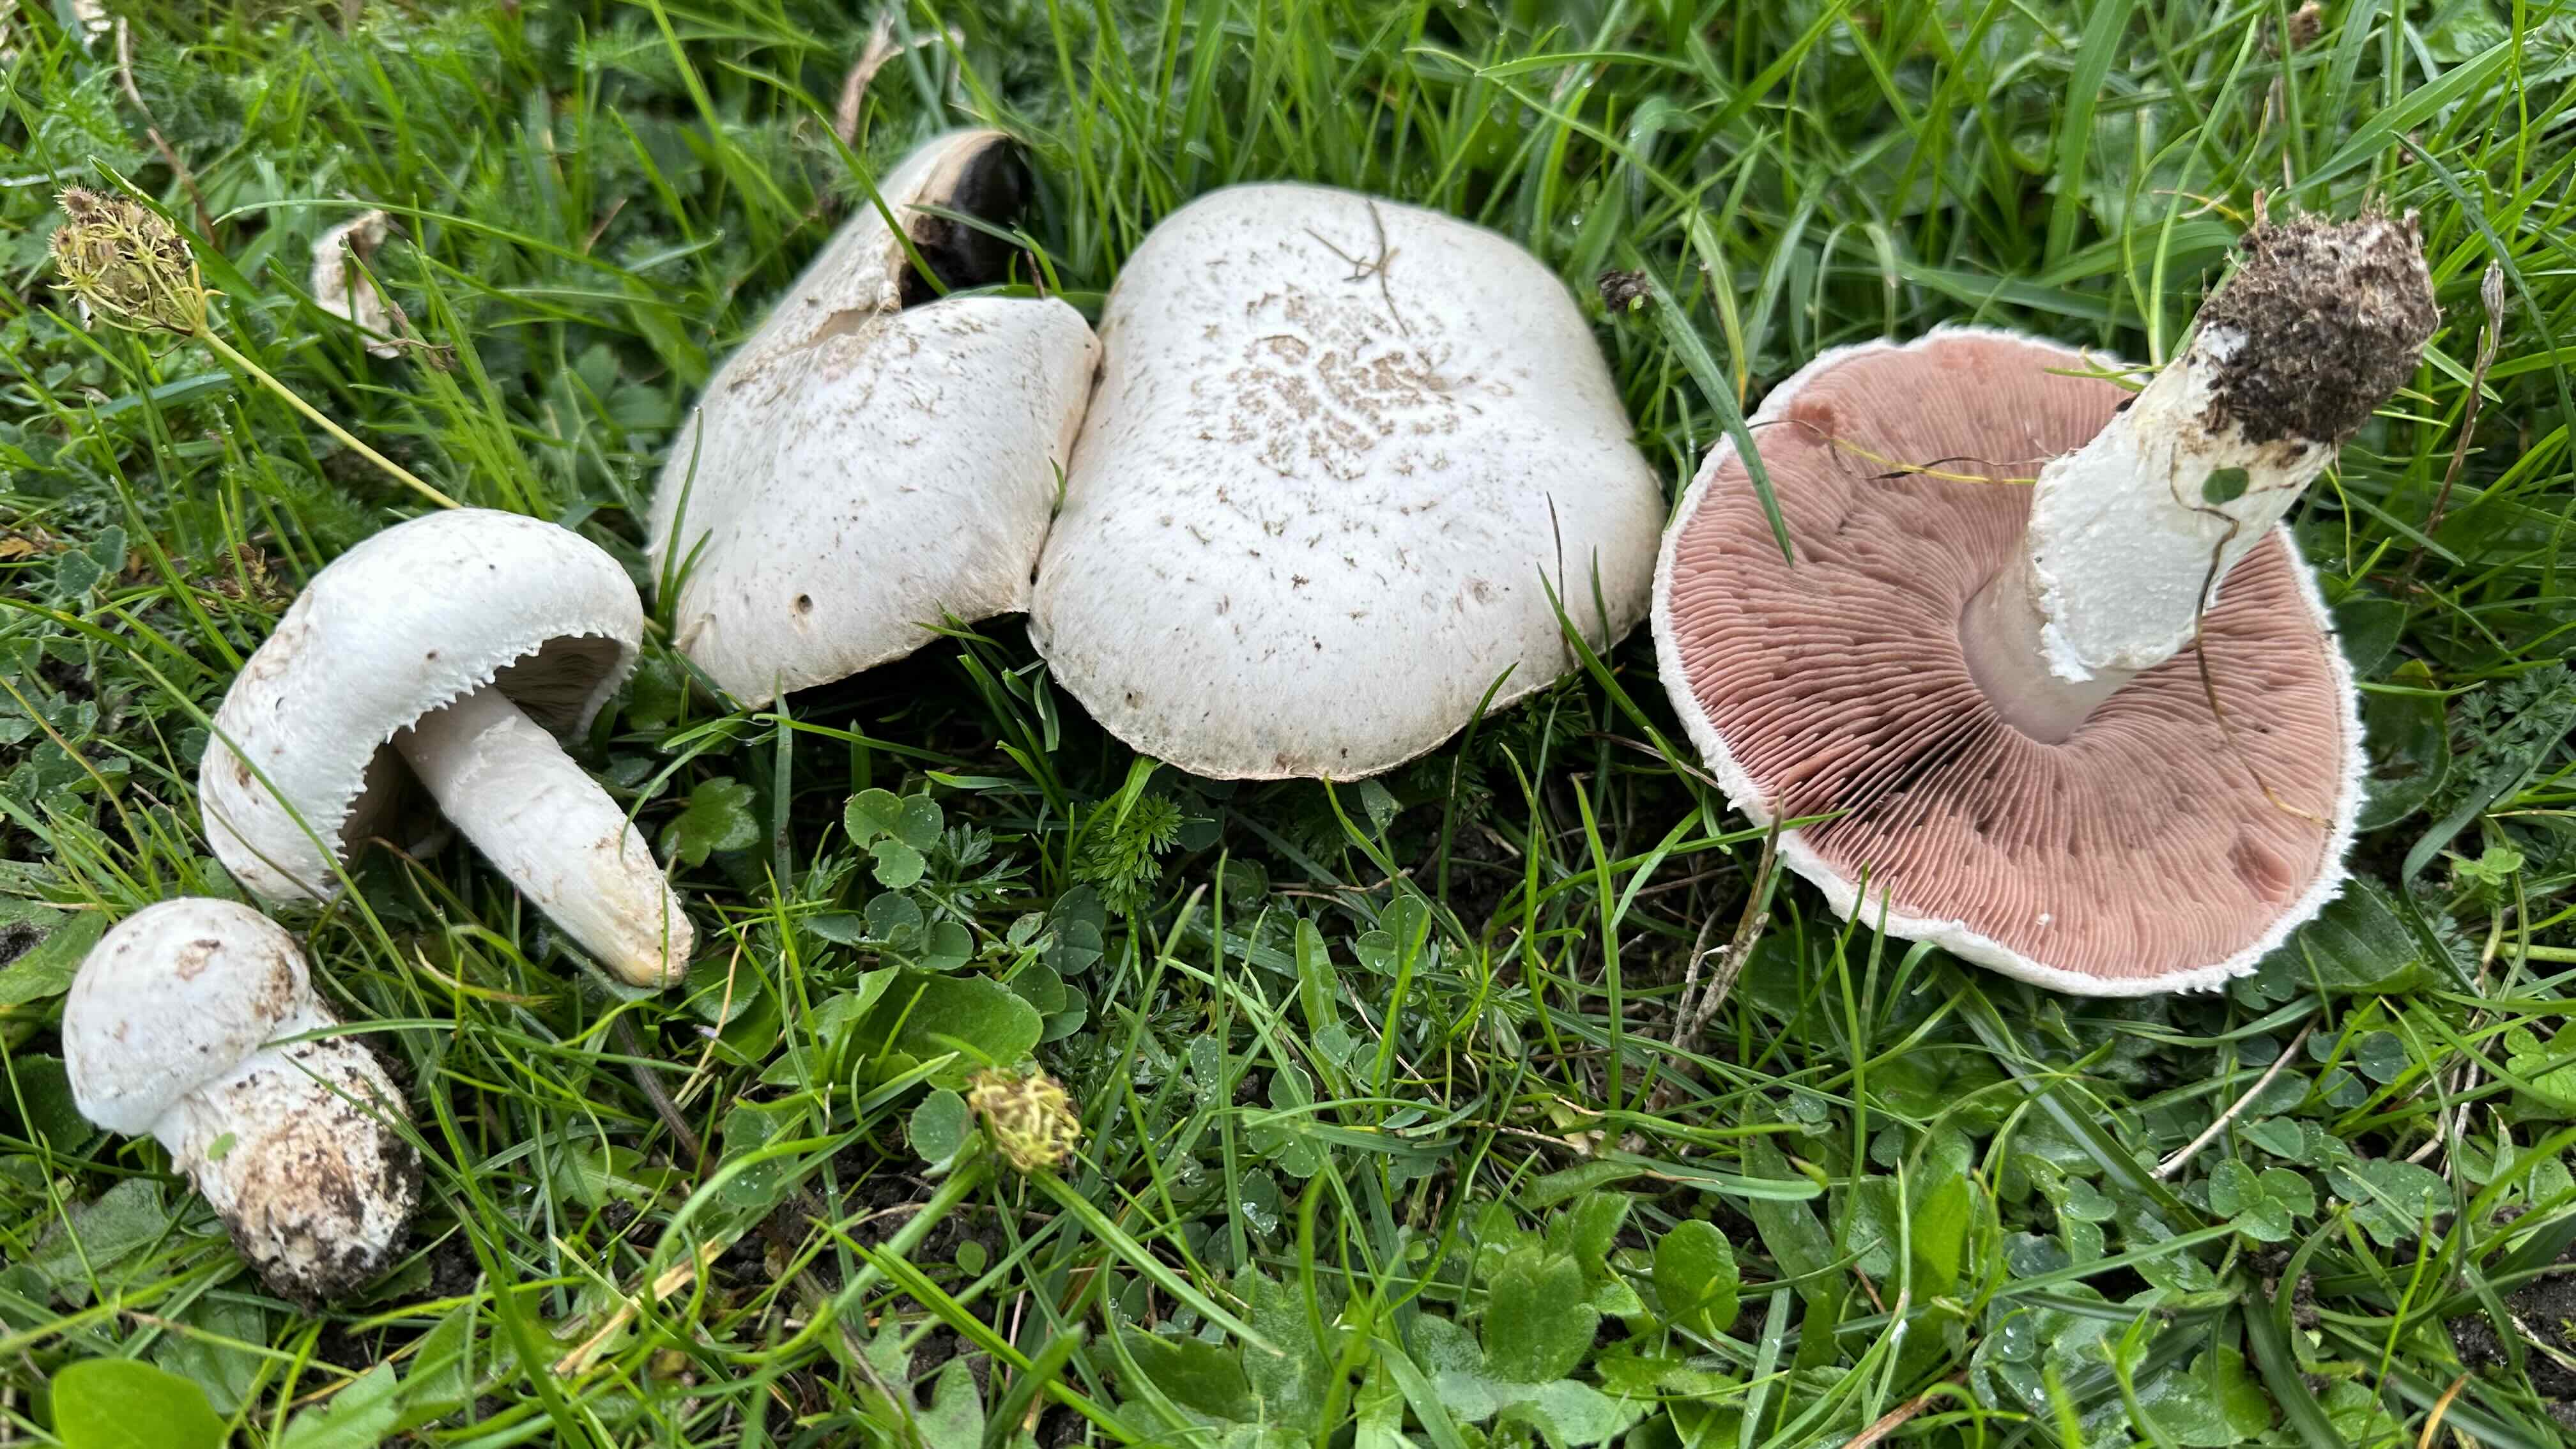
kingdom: Fungi
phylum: Basidiomycota
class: Agaricomycetes
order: Agaricales
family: Agaricaceae
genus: Agaricus
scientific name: Agaricus campestris
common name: mark-champignon
